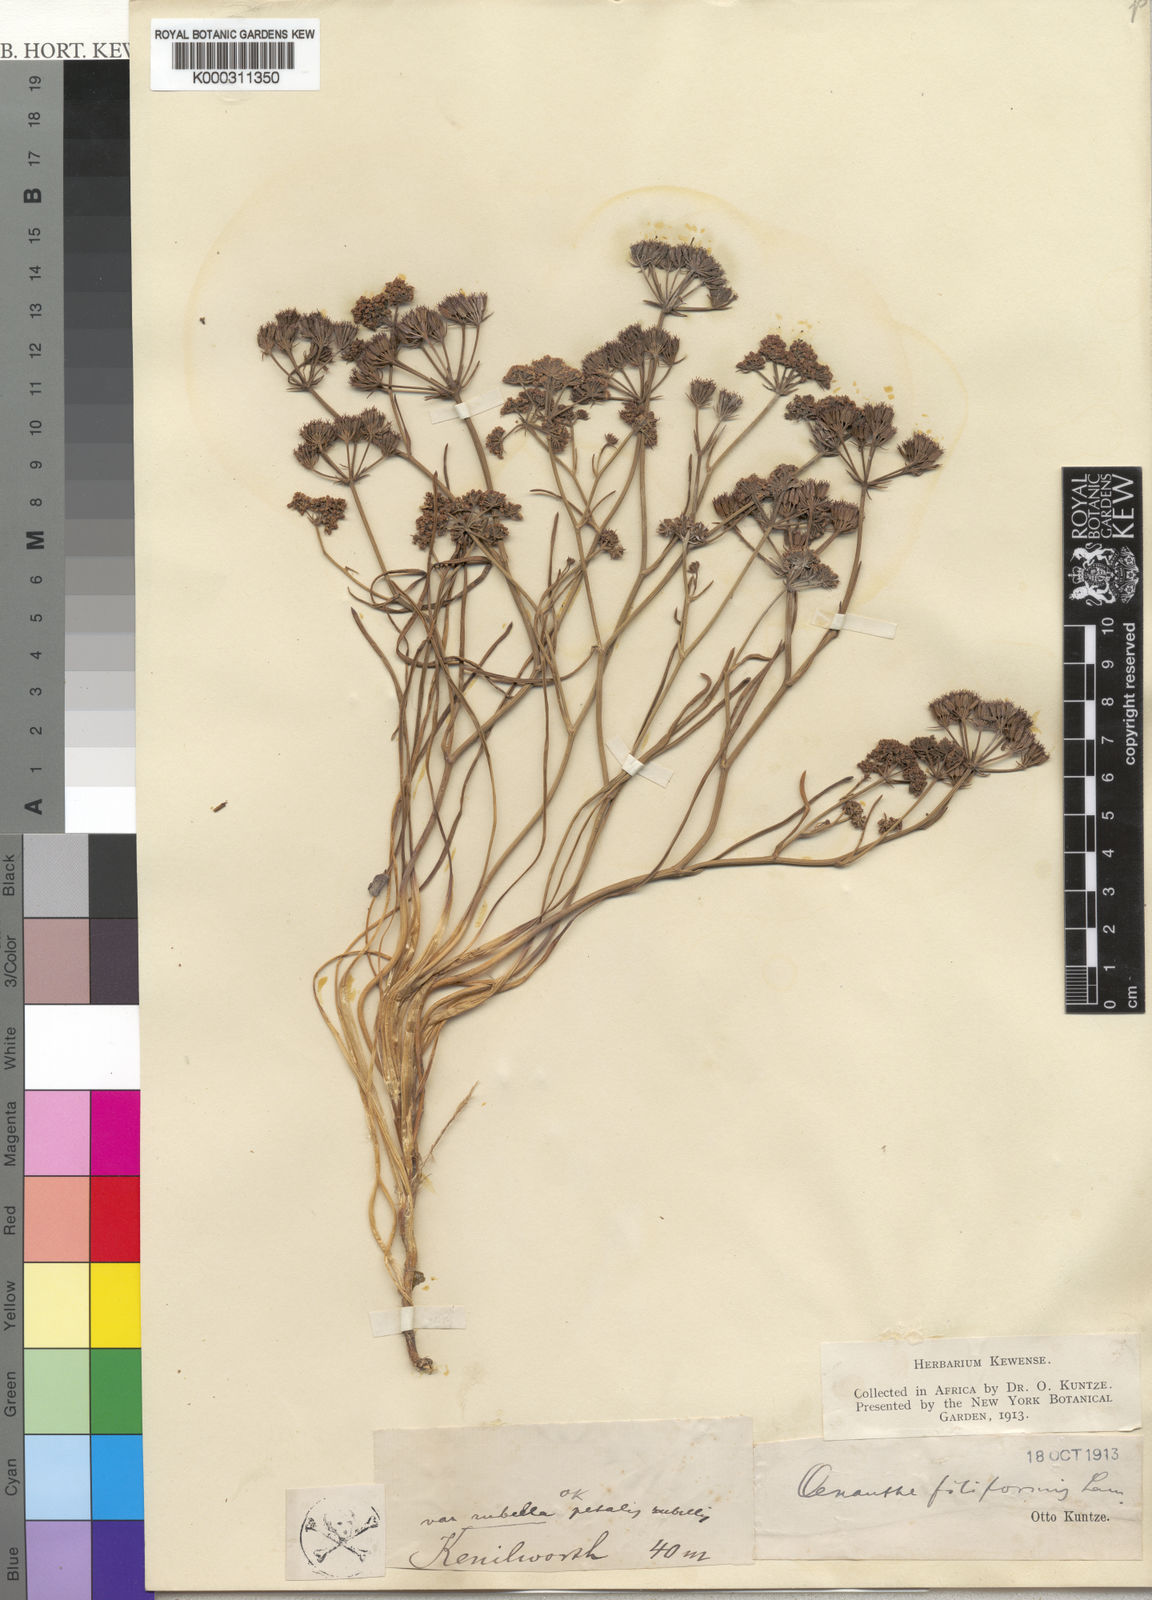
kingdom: Plantae
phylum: Tracheophyta
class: Magnoliopsida
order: Apiales
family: Apiaceae
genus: Itasina
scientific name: Itasina filifolia
